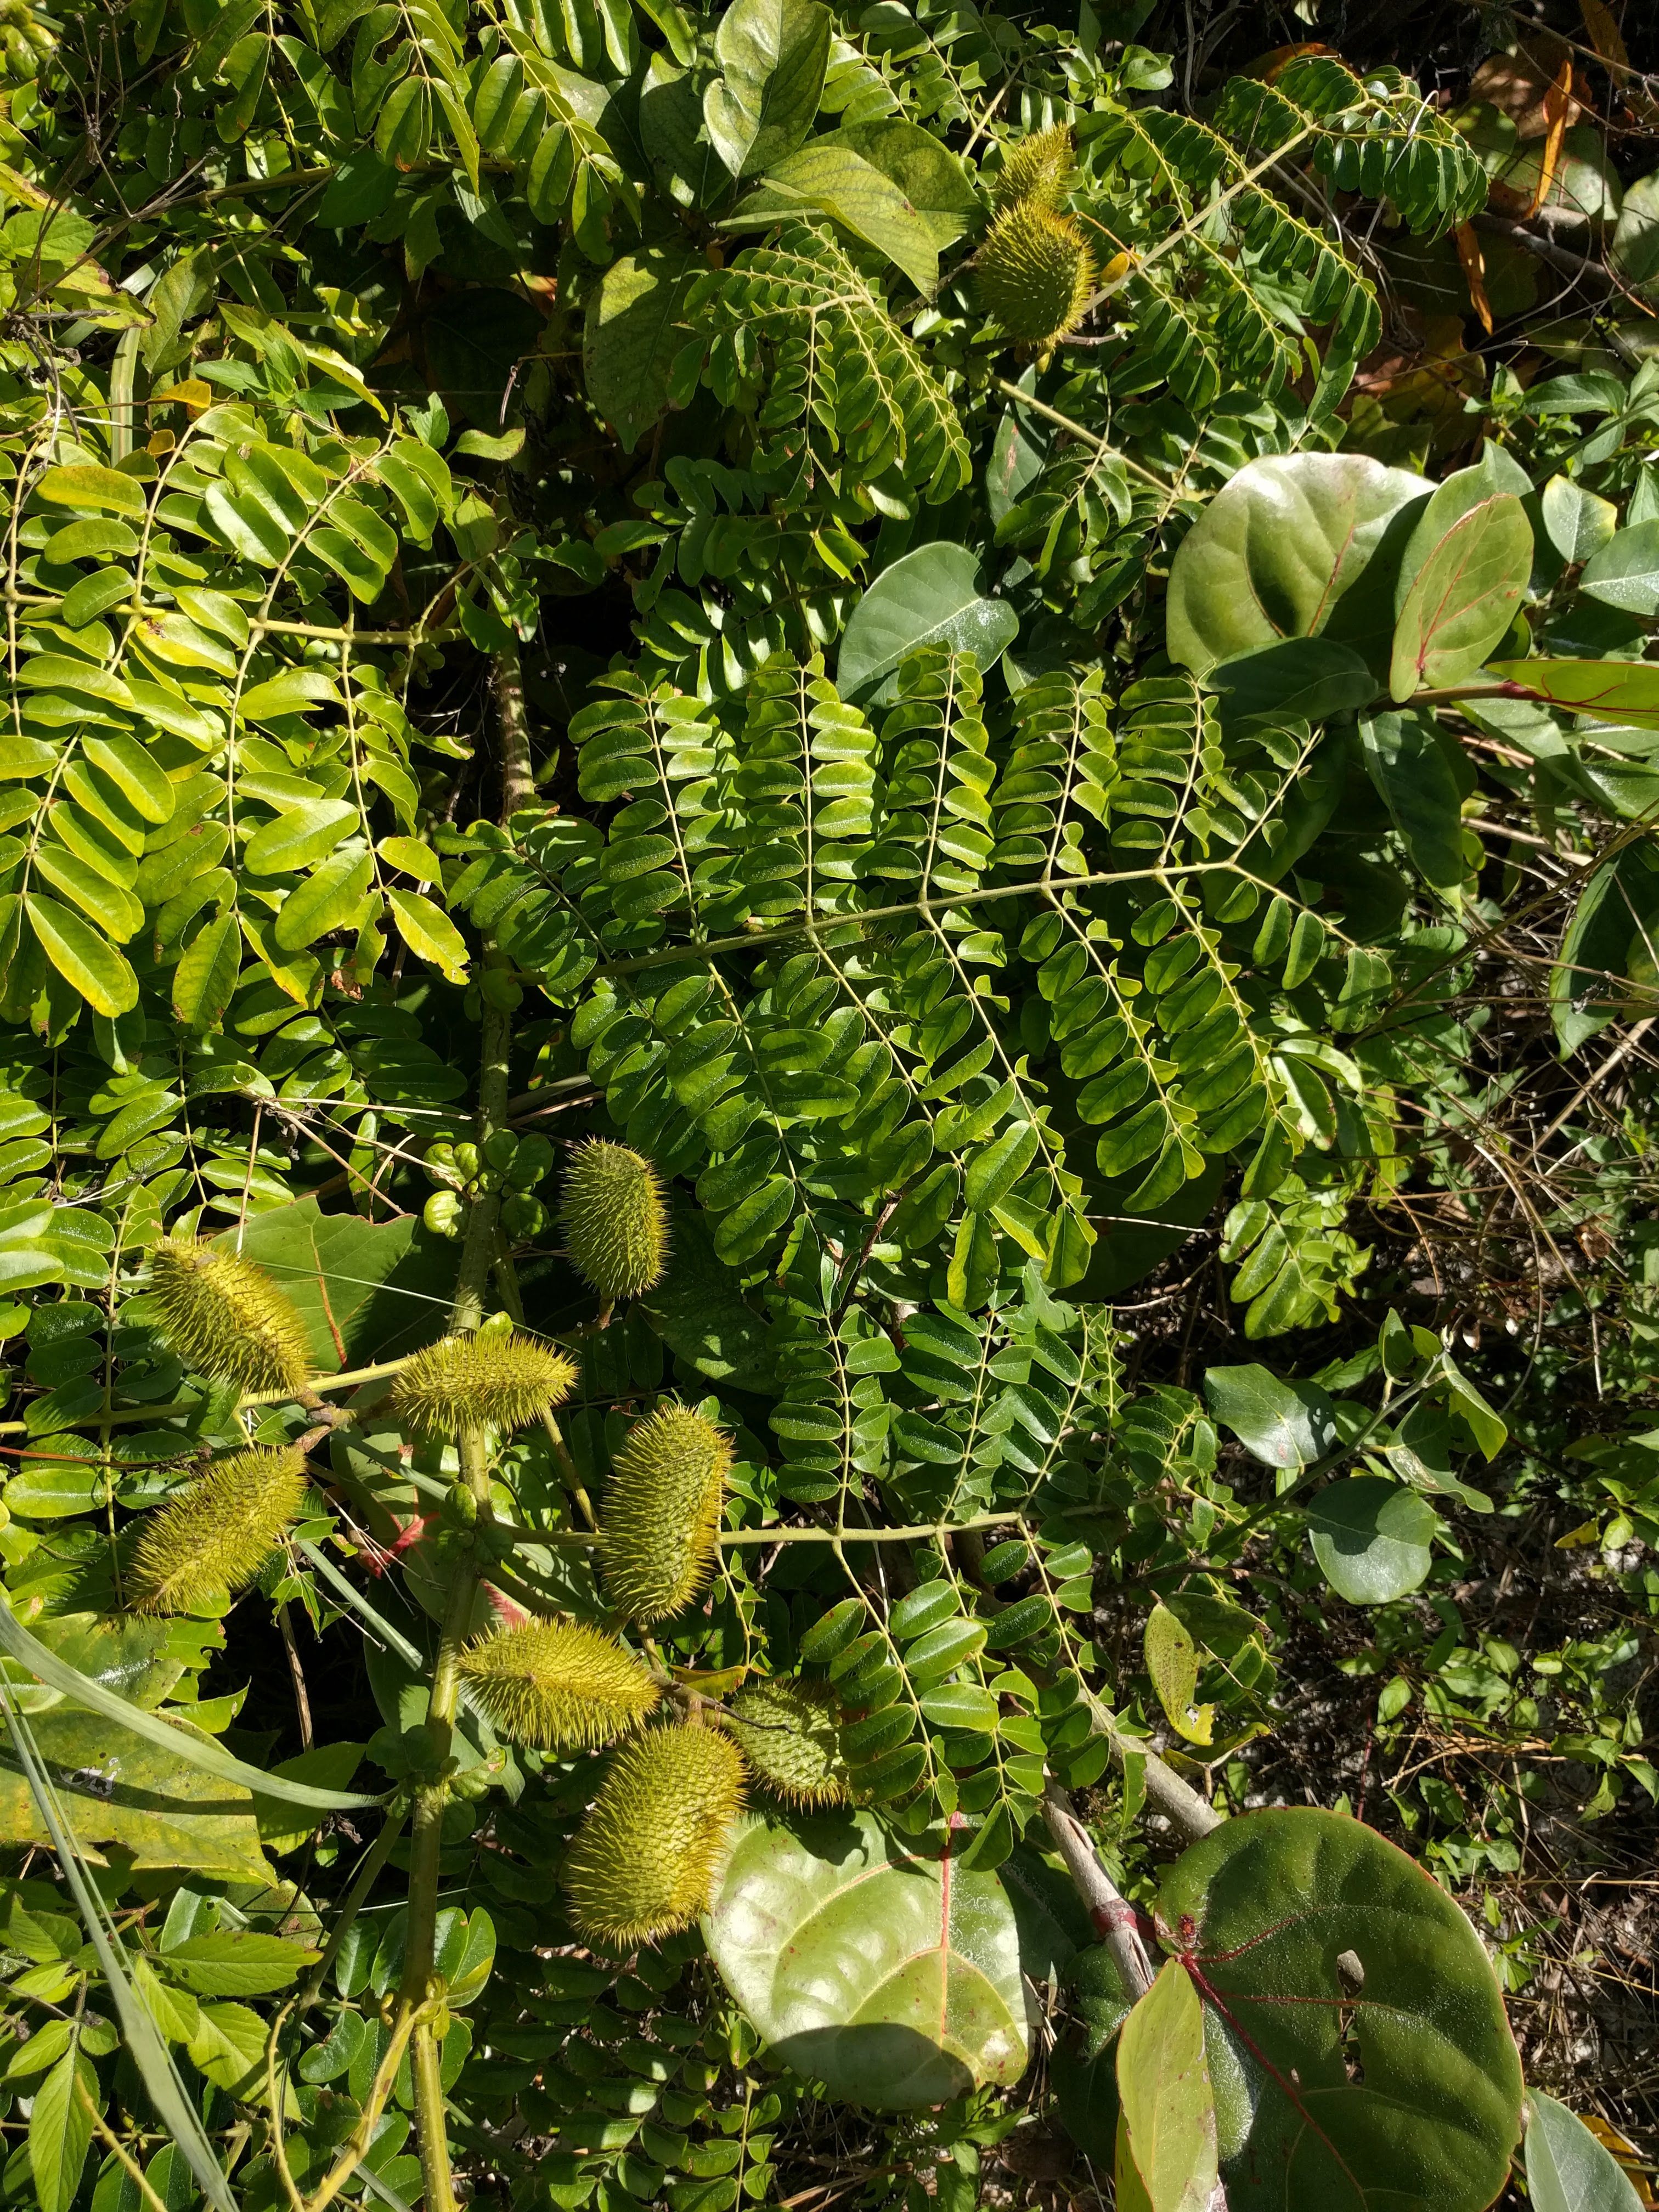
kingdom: Plantae
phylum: Tracheophyta
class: Magnoliopsida
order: Fabales
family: Fabaceae
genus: Guilandina
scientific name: Guilandina bonduc
